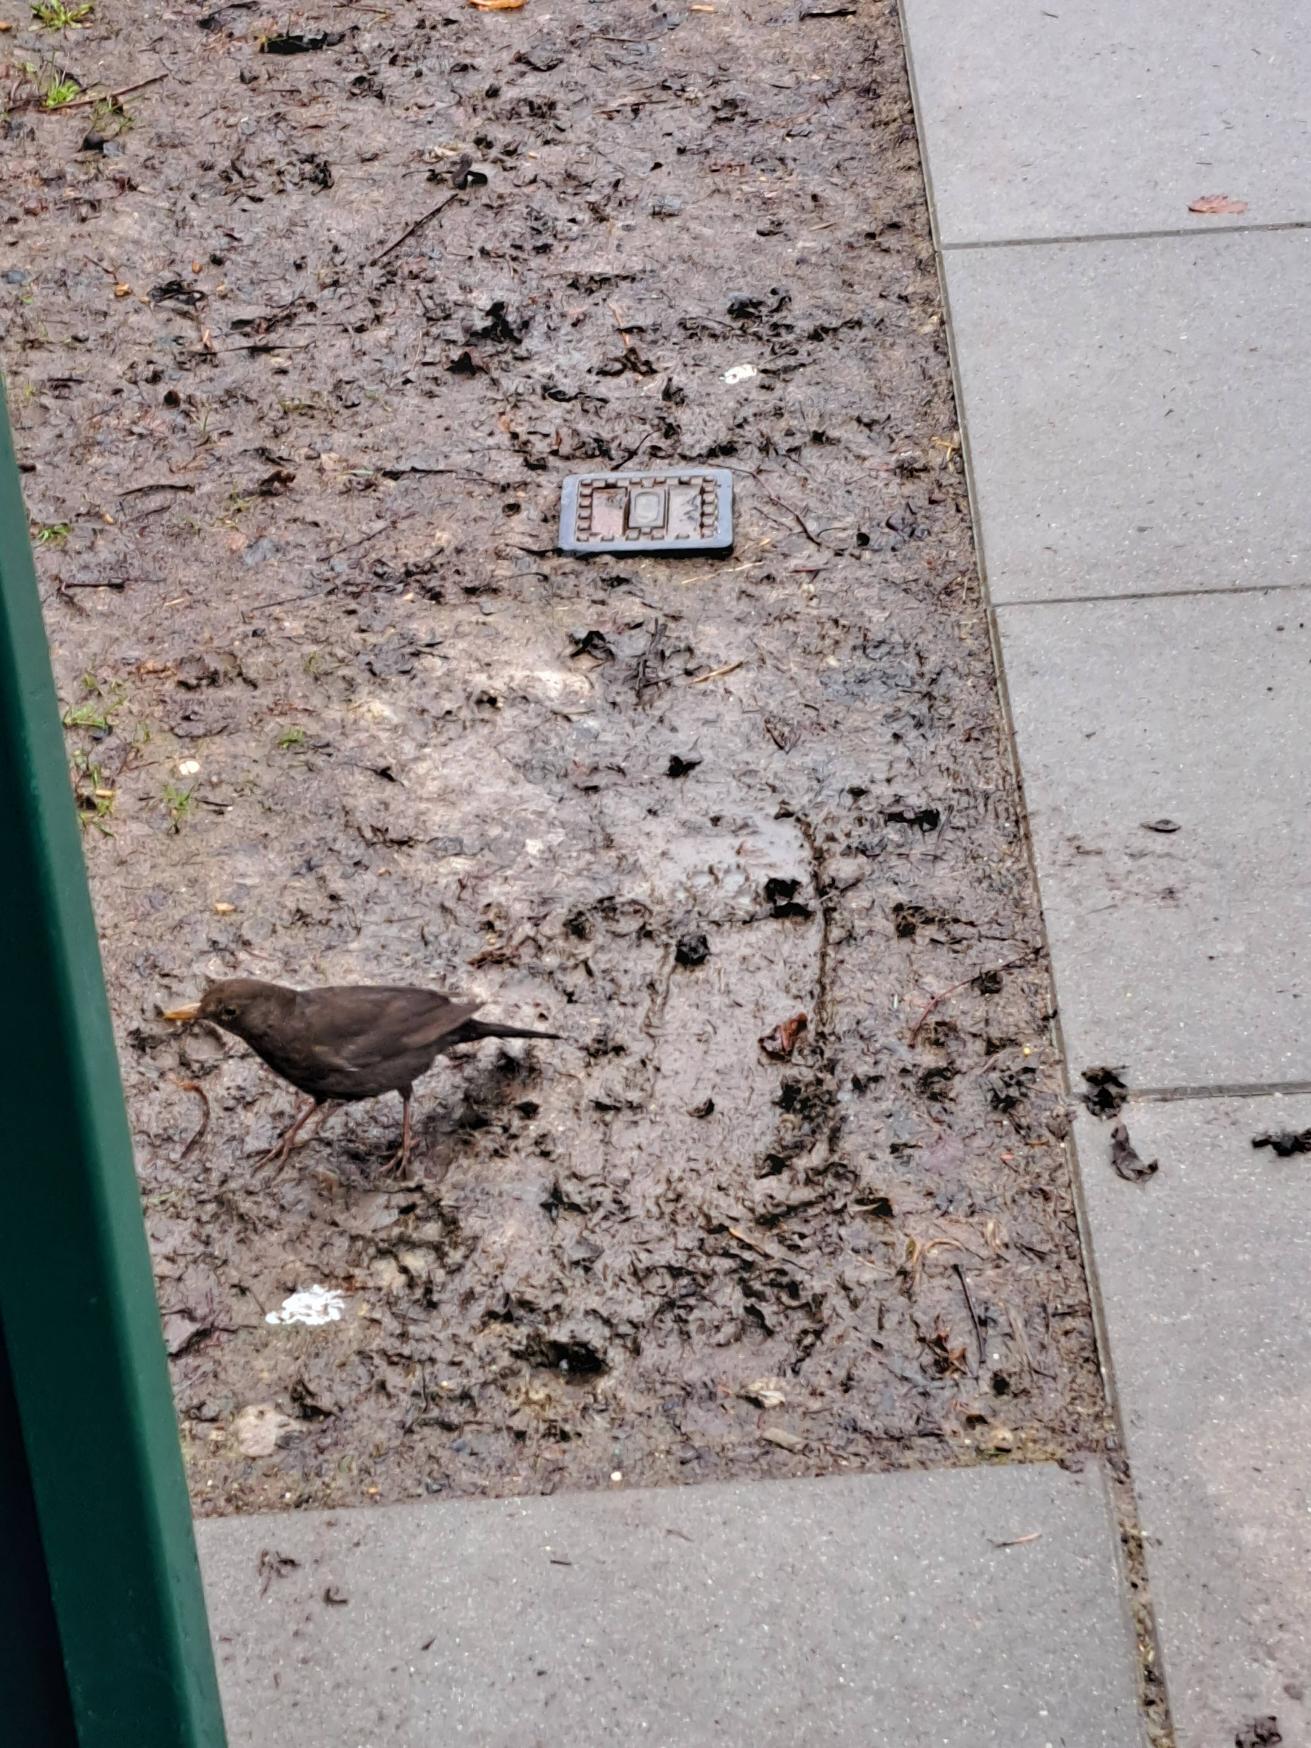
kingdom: Animalia
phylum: Chordata
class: Aves
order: Passeriformes
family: Turdidae
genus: Turdus
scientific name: Turdus merula
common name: Solsort
